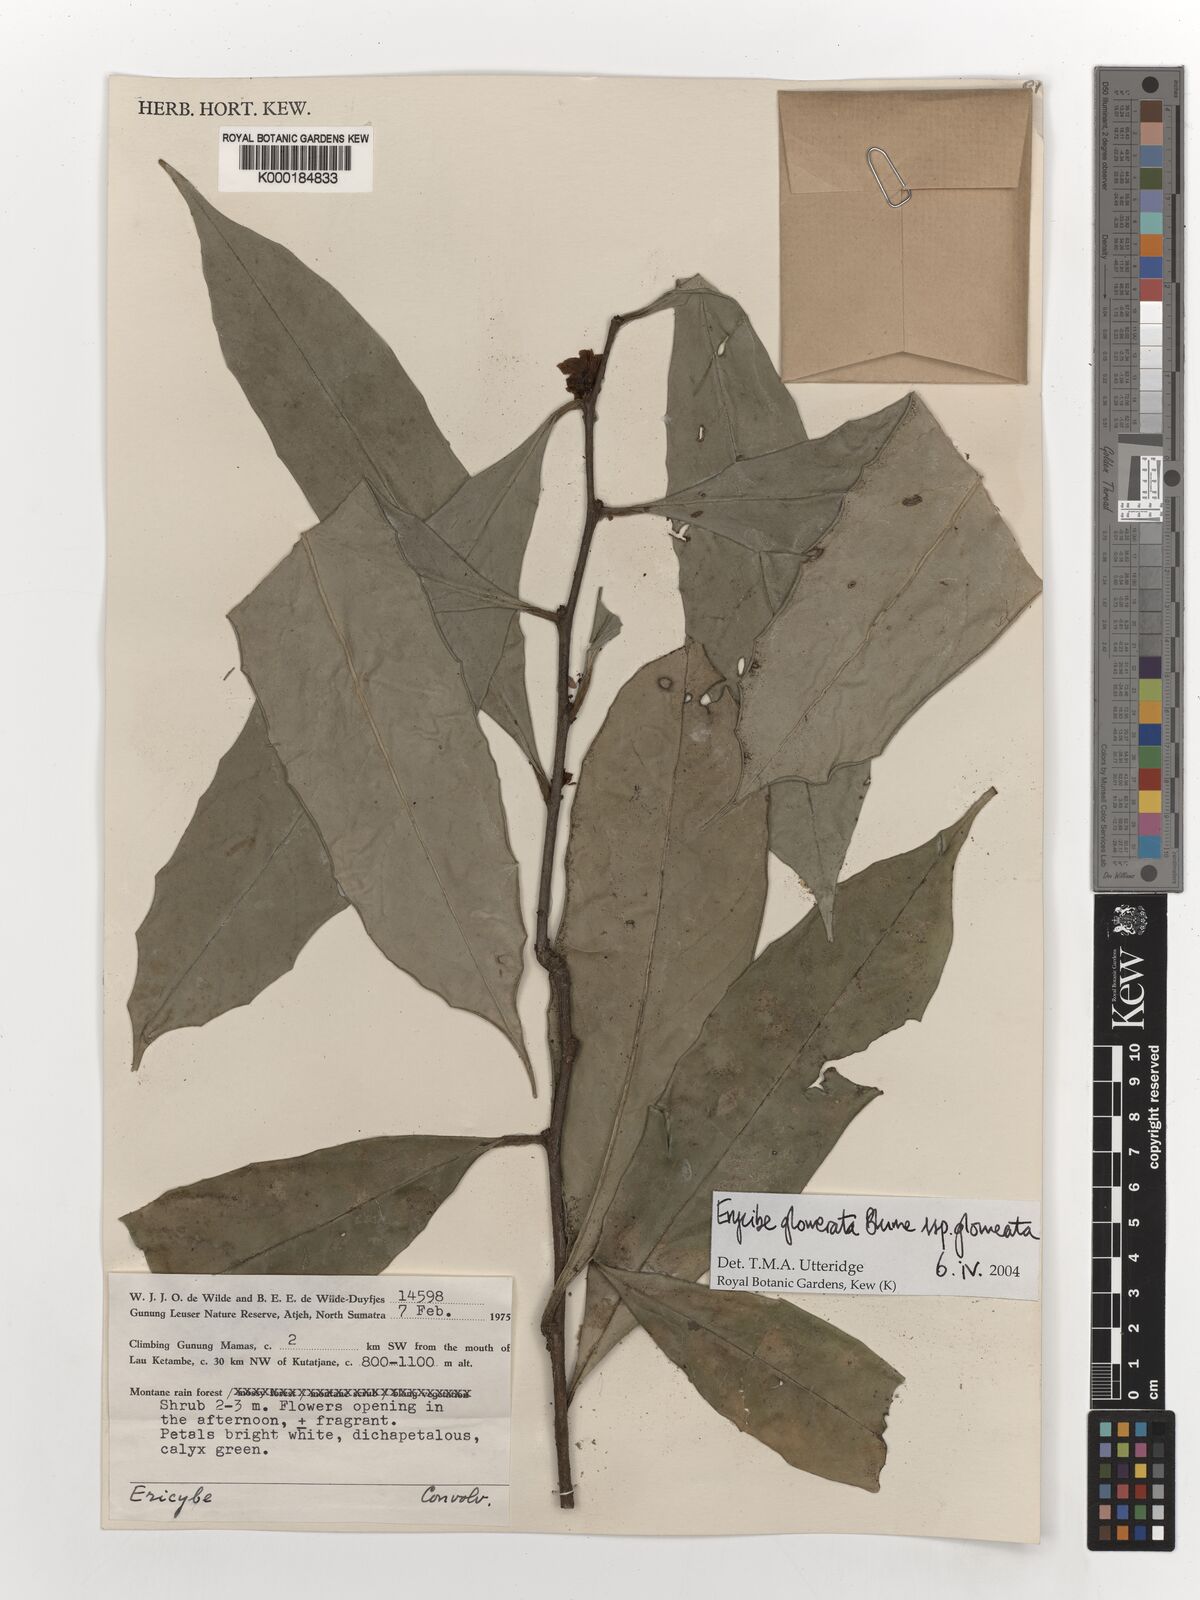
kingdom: Plantae
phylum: Tracheophyta
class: Magnoliopsida
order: Solanales
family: Convolvulaceae
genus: Erycibe
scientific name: Erycibe glomerata
